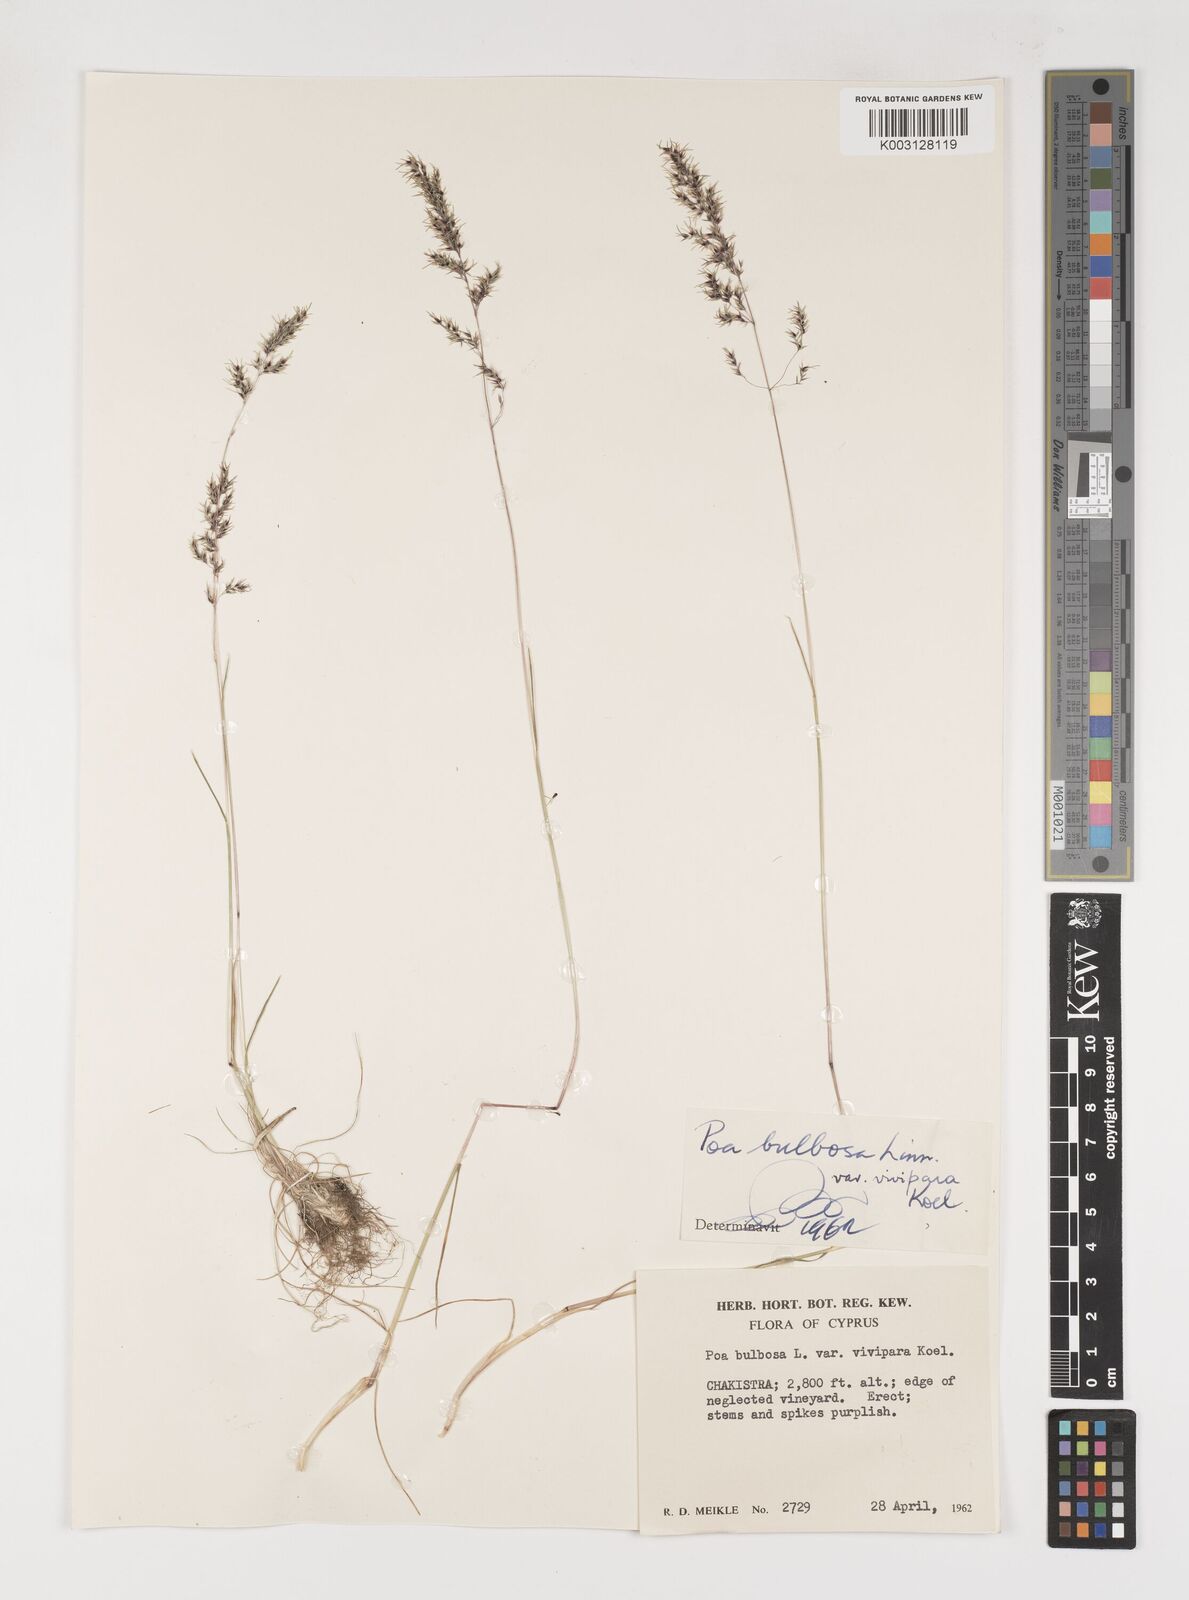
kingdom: Plantae
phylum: Tracheophyta
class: Liliopsida
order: Poales
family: Poaceae
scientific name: Poaceae
